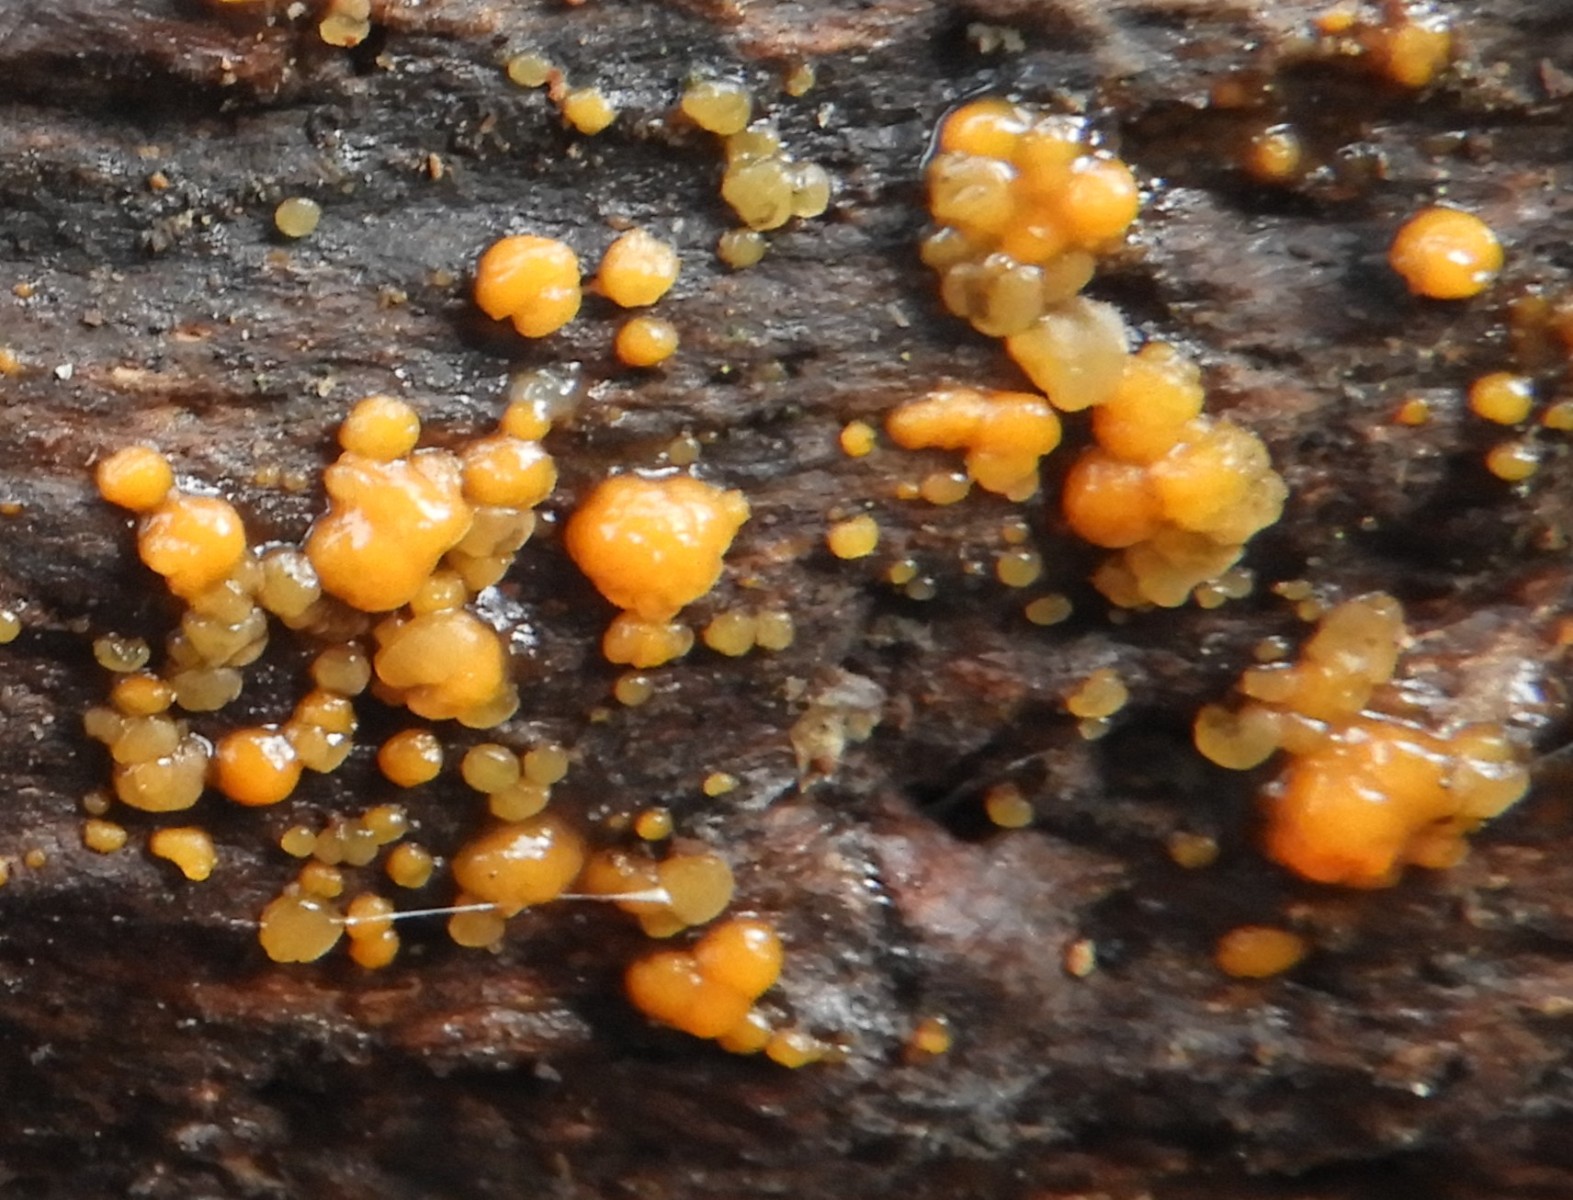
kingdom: Fungi
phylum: Basidiomycota
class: Dacrymycetes
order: Dacrymycetales
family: Dacrymycetaceae
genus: Dacrymyces
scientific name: Dacrymyces stillatus
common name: almindelig tåresvamp
